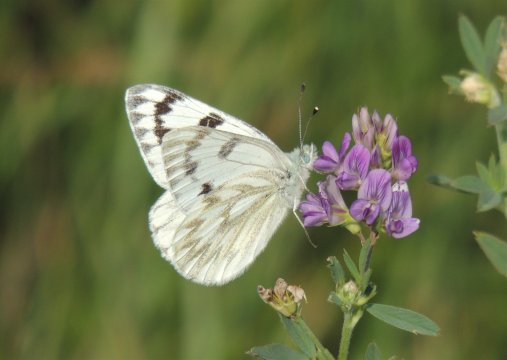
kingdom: Animalia
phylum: Arthropoda
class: Insecta
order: Lepidoptera
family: Pieridae
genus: Pontia
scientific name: Pontia occidentalis
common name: Western White
